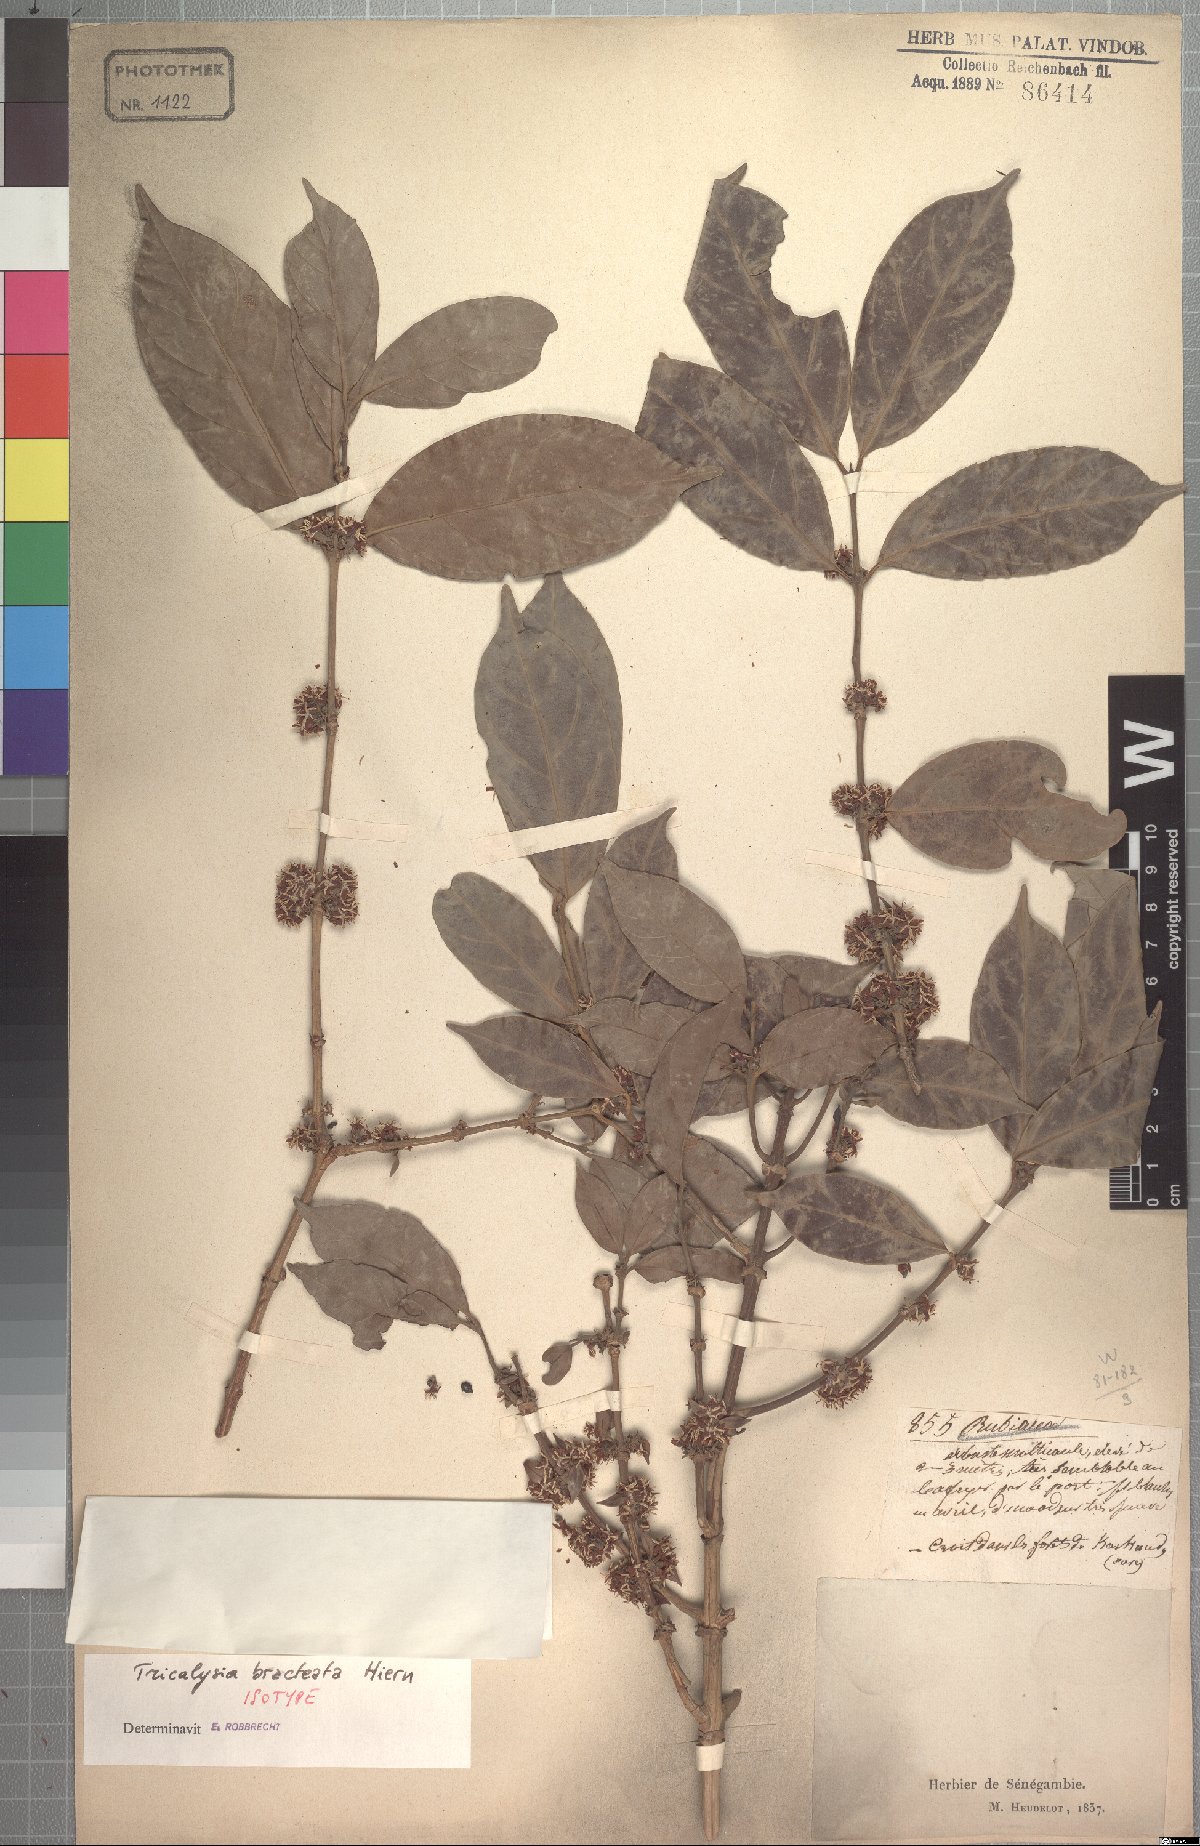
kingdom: Plantae
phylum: Tracheophyta
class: Magnoliopsida
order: Gentianales
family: Rubiaceae
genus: Empogona
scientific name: Empogona bracteata
